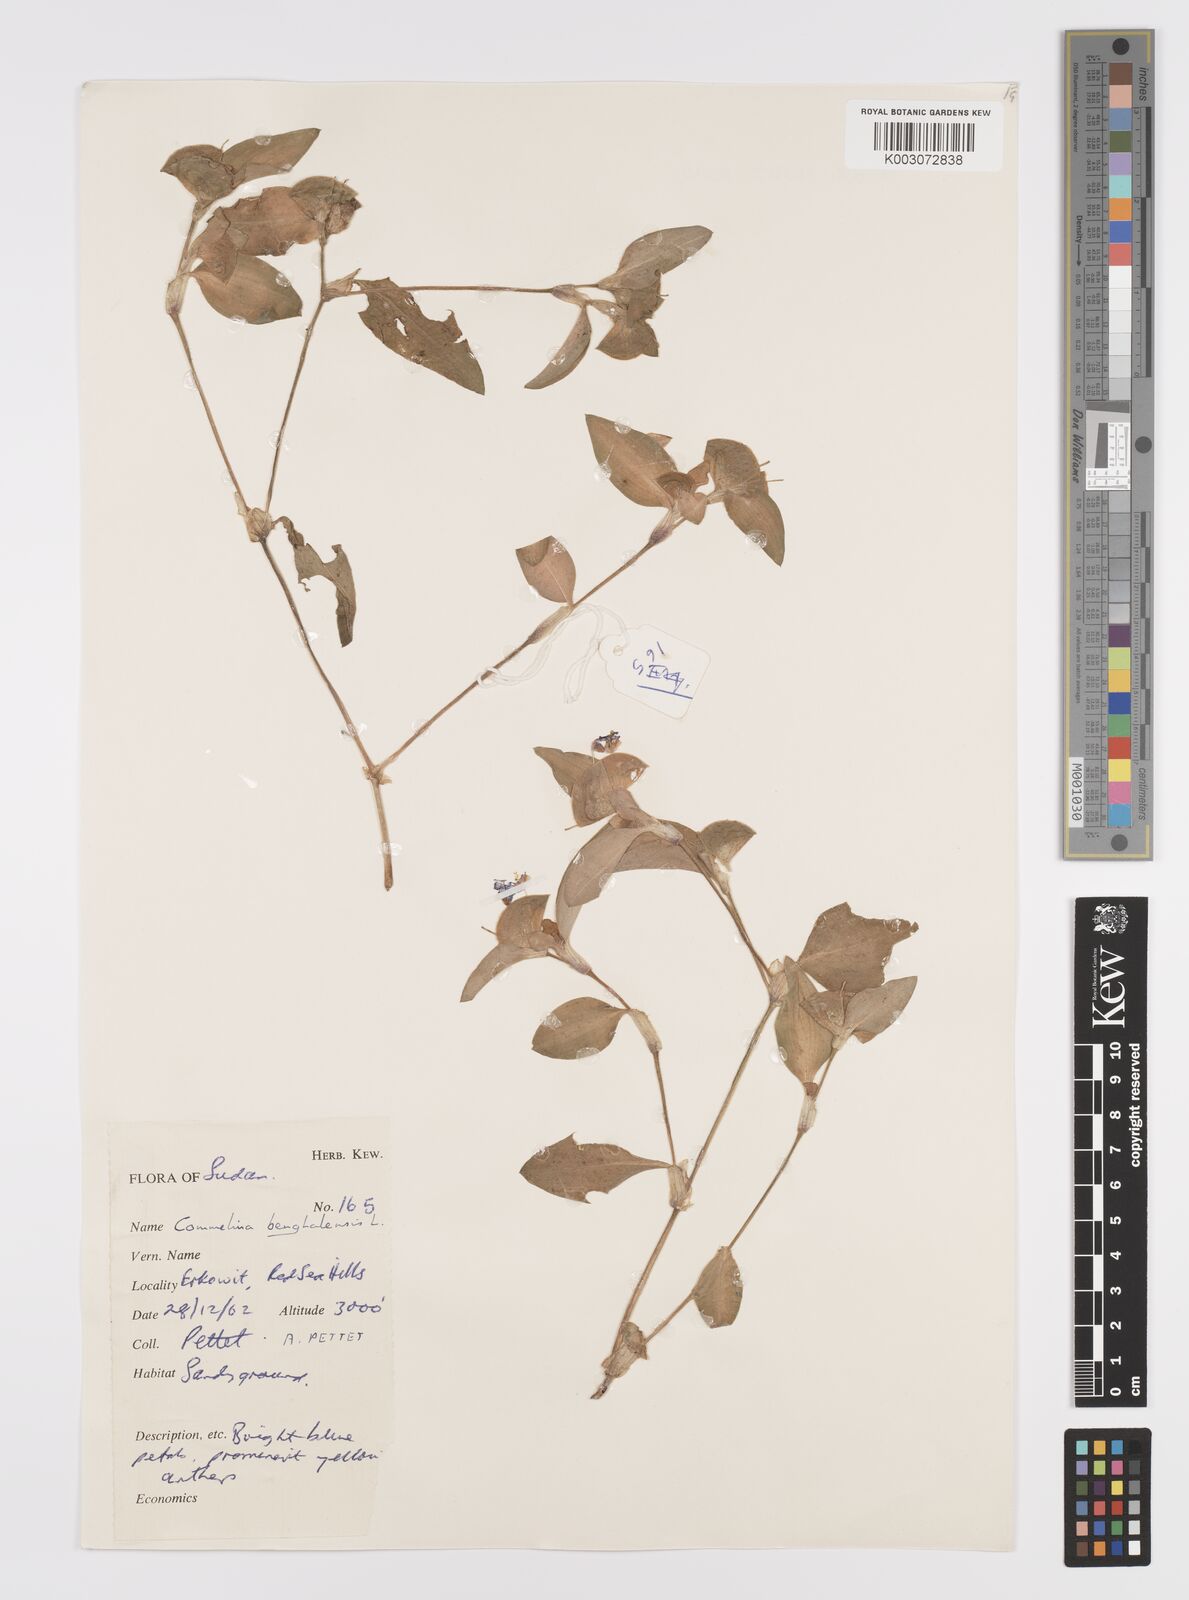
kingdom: Plantae
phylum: Tracheophyta
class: Liliopsida
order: Commelinales
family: Commelinaceae
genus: Commelina
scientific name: Commelina benghalensis
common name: Jio
